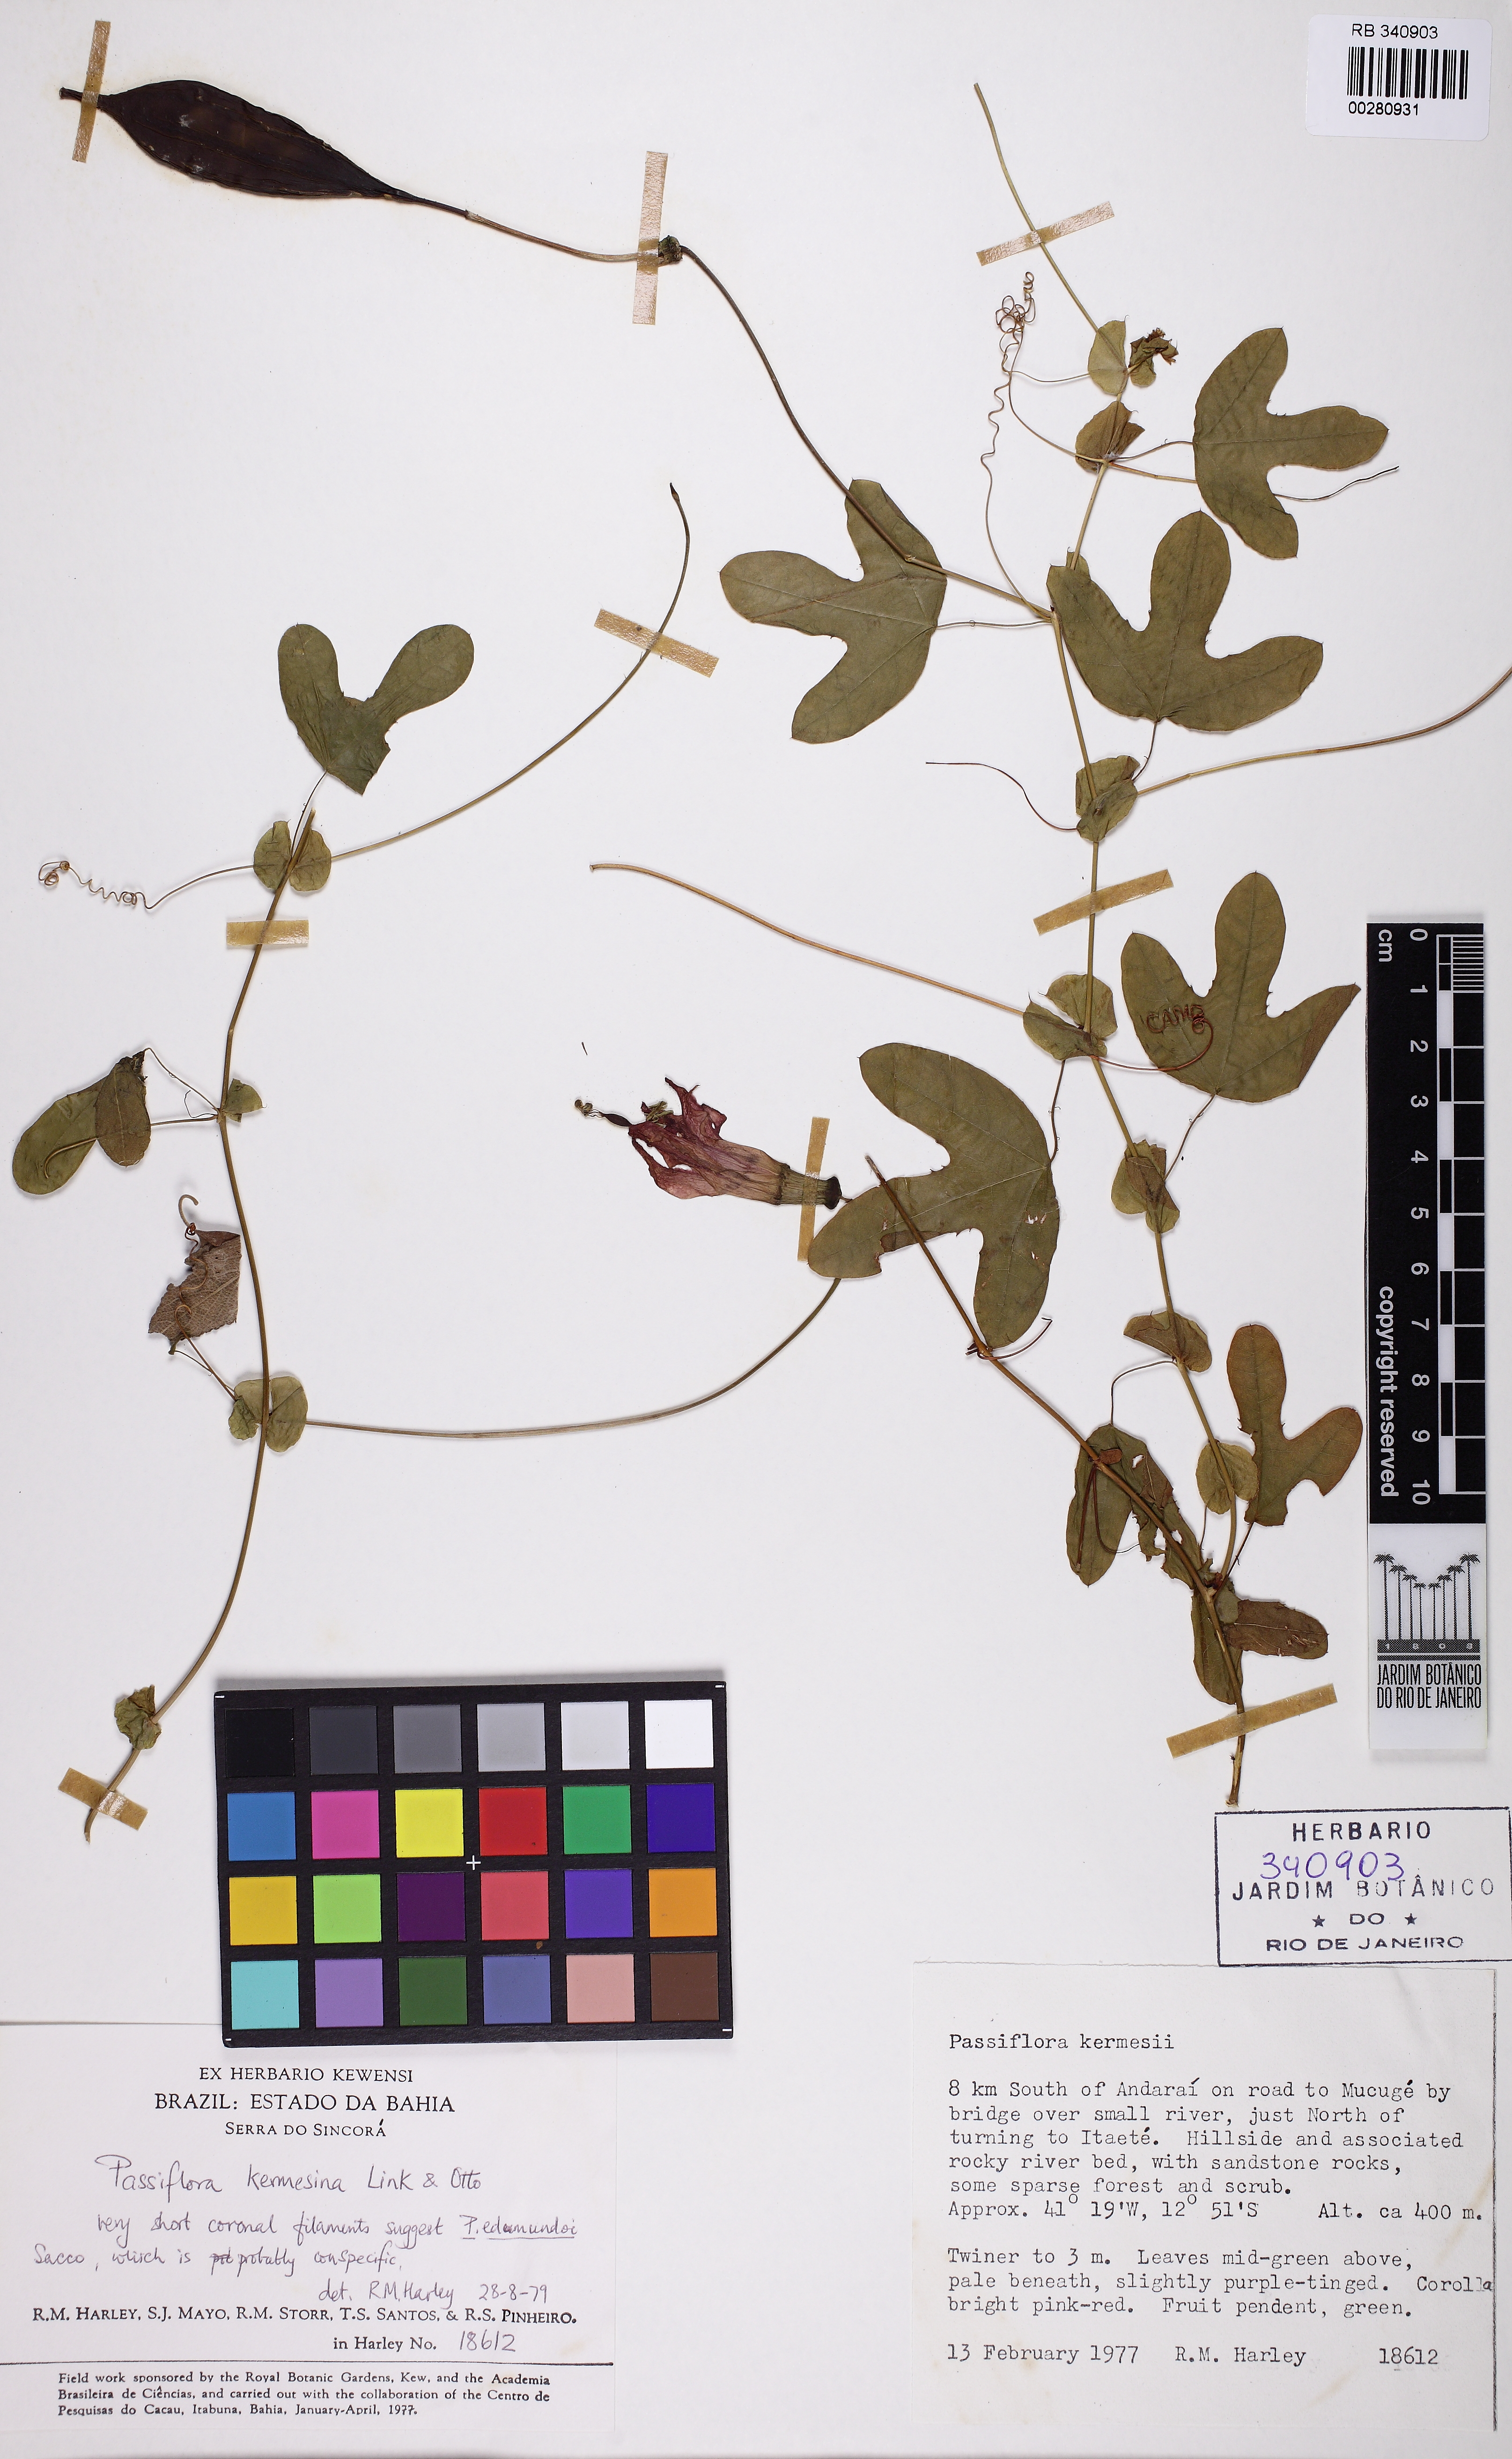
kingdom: Plantae
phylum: Tracheophyta
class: Magnoliopsida
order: Malpighiales
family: Passifloraceae
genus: Passiflora
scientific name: Passiflora kermesina
